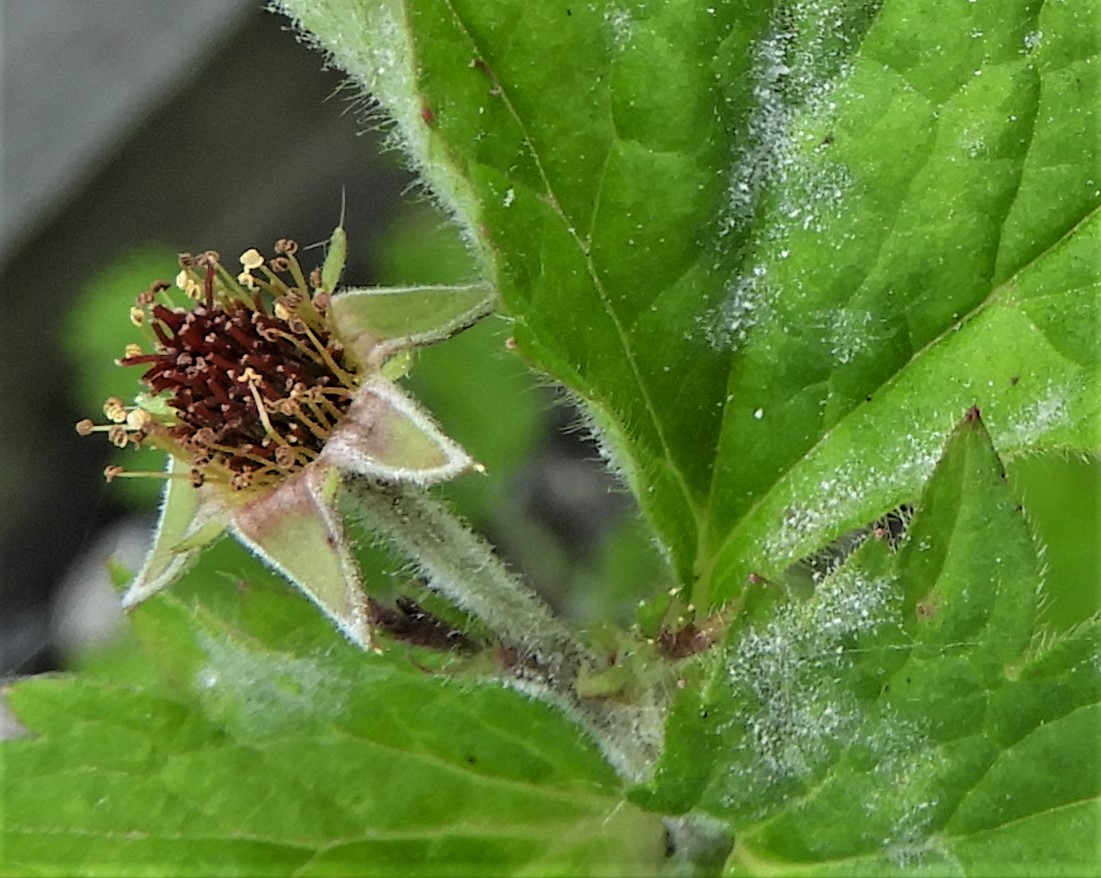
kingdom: Fungi
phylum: Ascomycota
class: Leotiomycetes
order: Helotiales
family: Erysiphaceae
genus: Podosphaera
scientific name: Podosphaera aphanis
